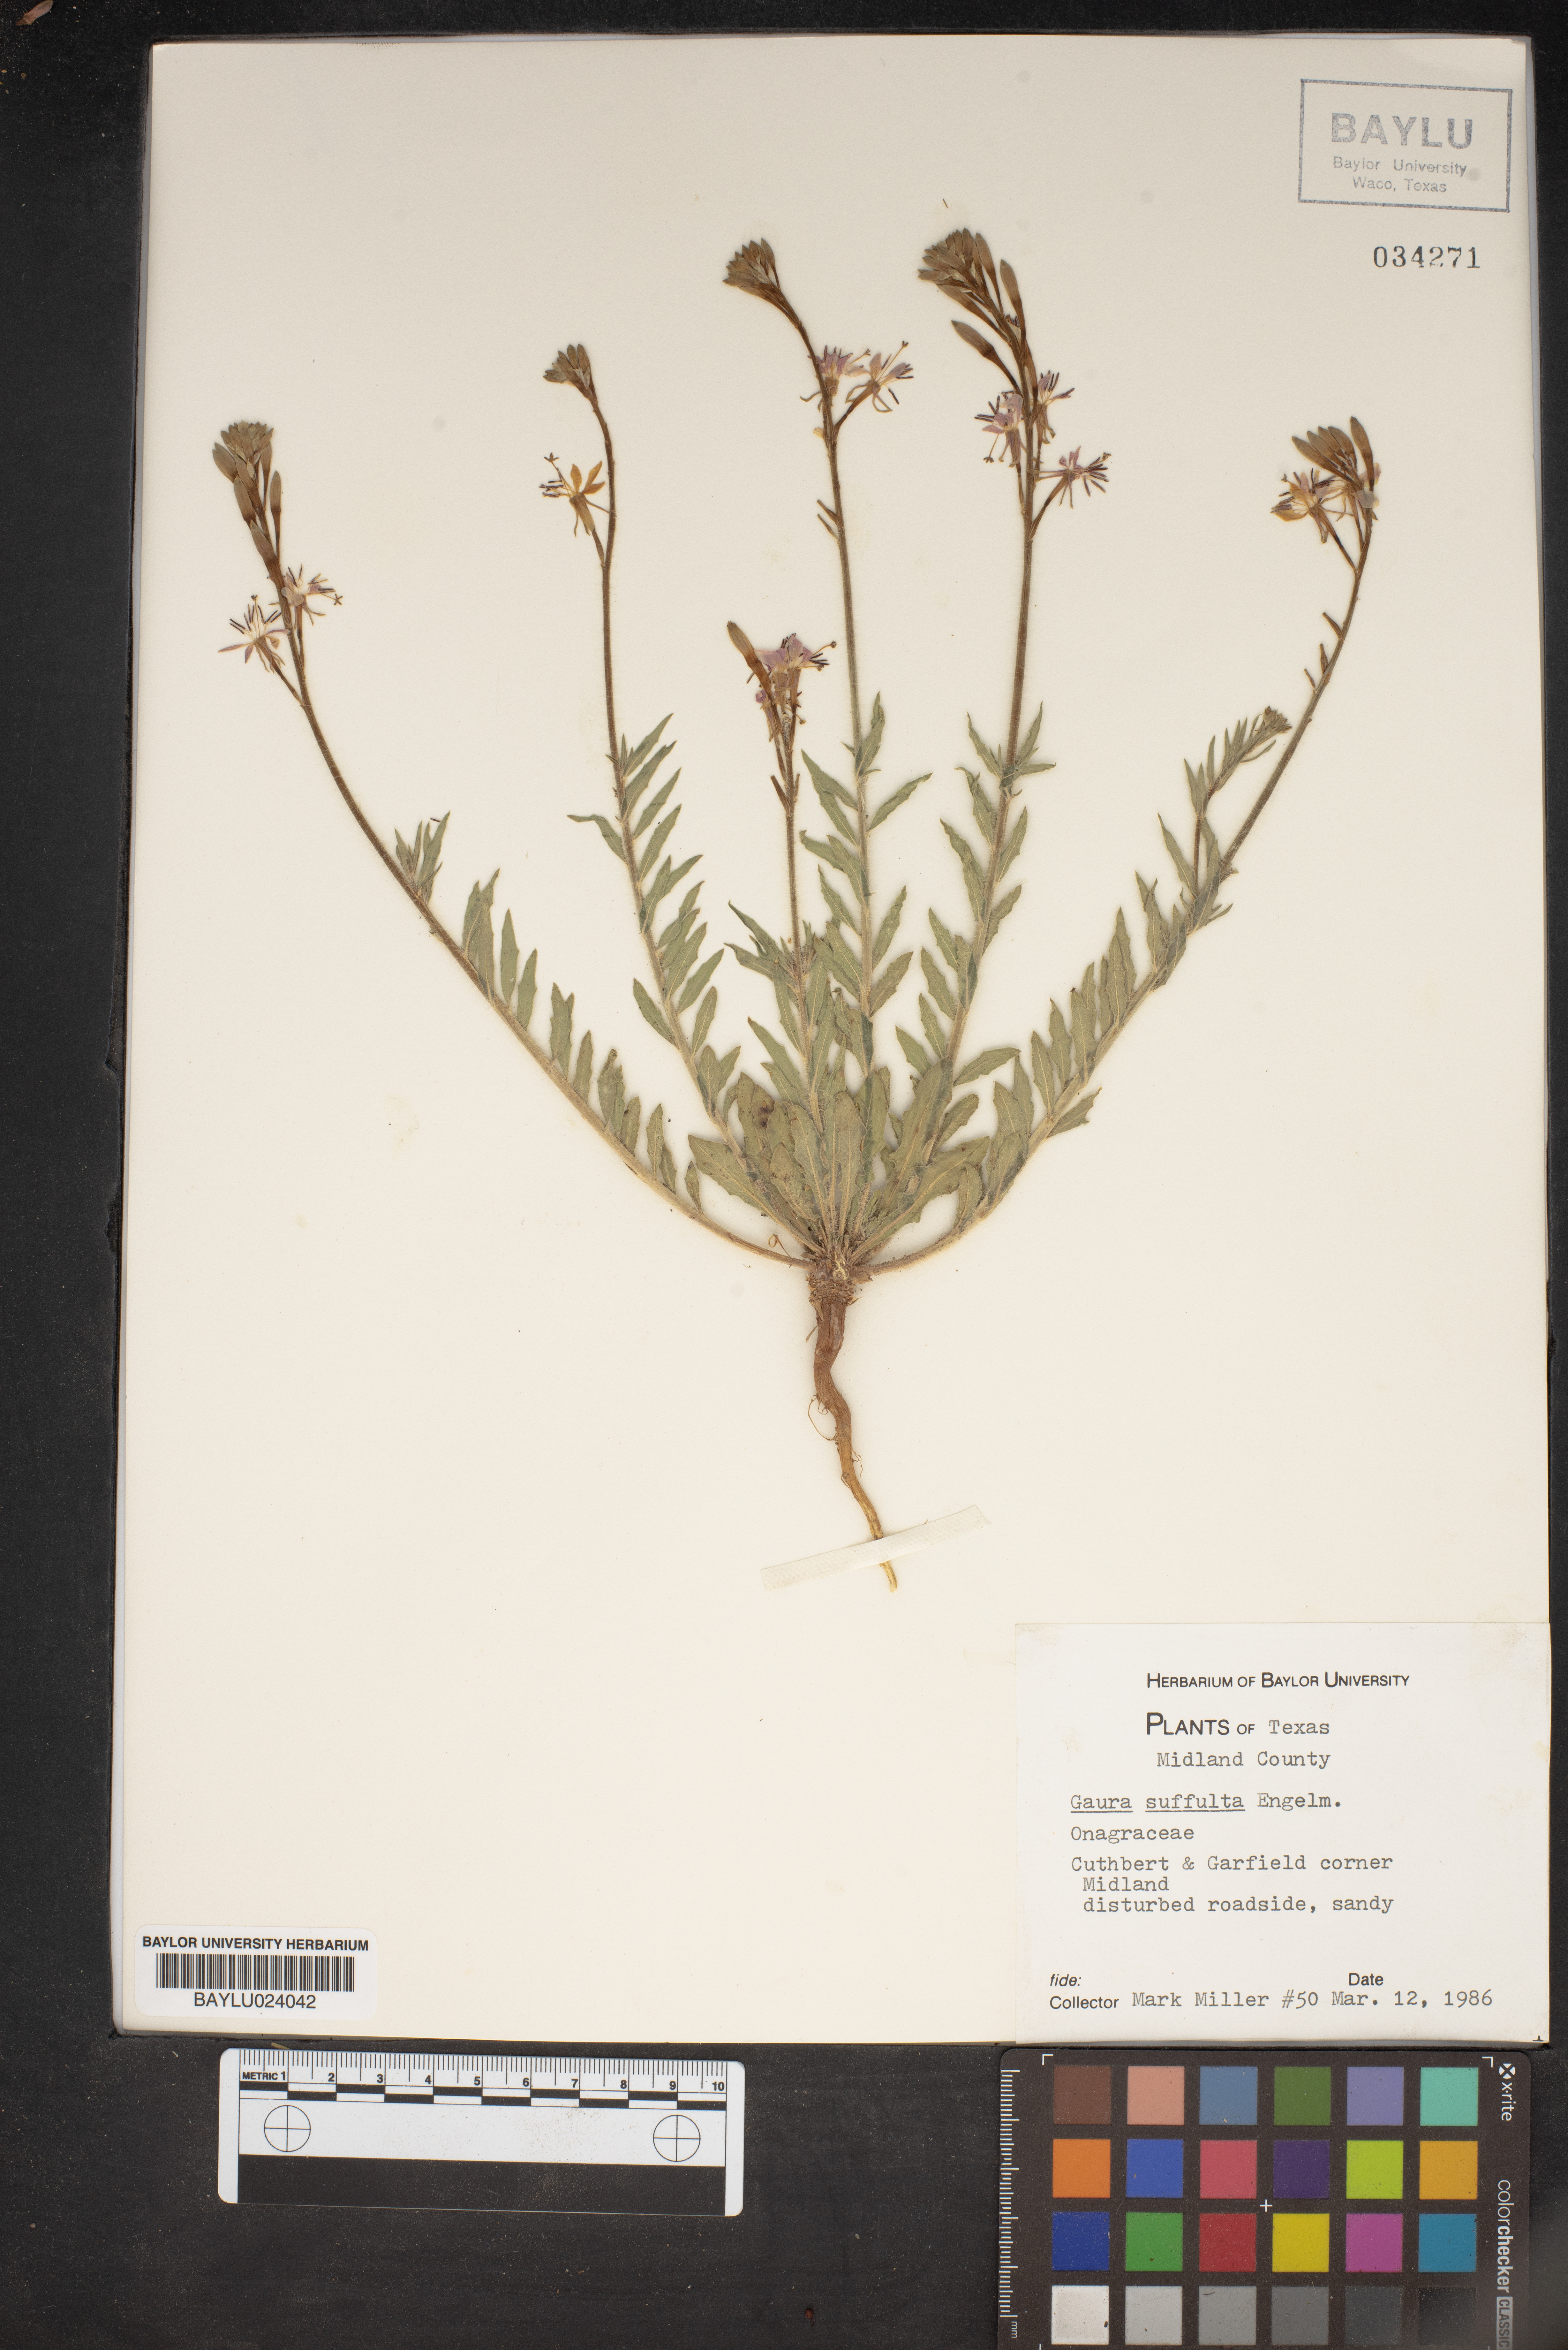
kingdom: Plantae
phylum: Tracheophyta
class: Magnoliopsida
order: Myrtales
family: Onagraceae
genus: Oenothera
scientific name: Oenothera Gaura suffulta
